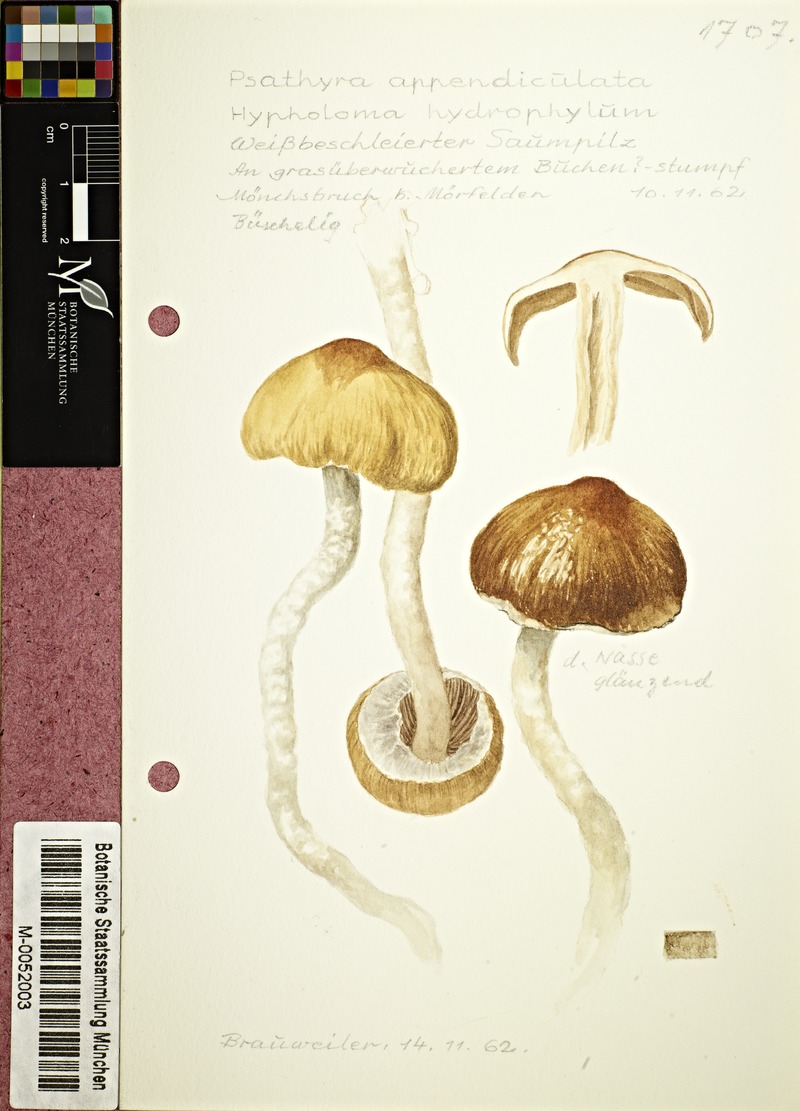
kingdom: Fungi
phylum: Basidiomycota
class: Agaricomycetes
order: Agaricales
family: Psathyrellaceae
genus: Candolleomyces
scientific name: Candolleomyces candolleanus
